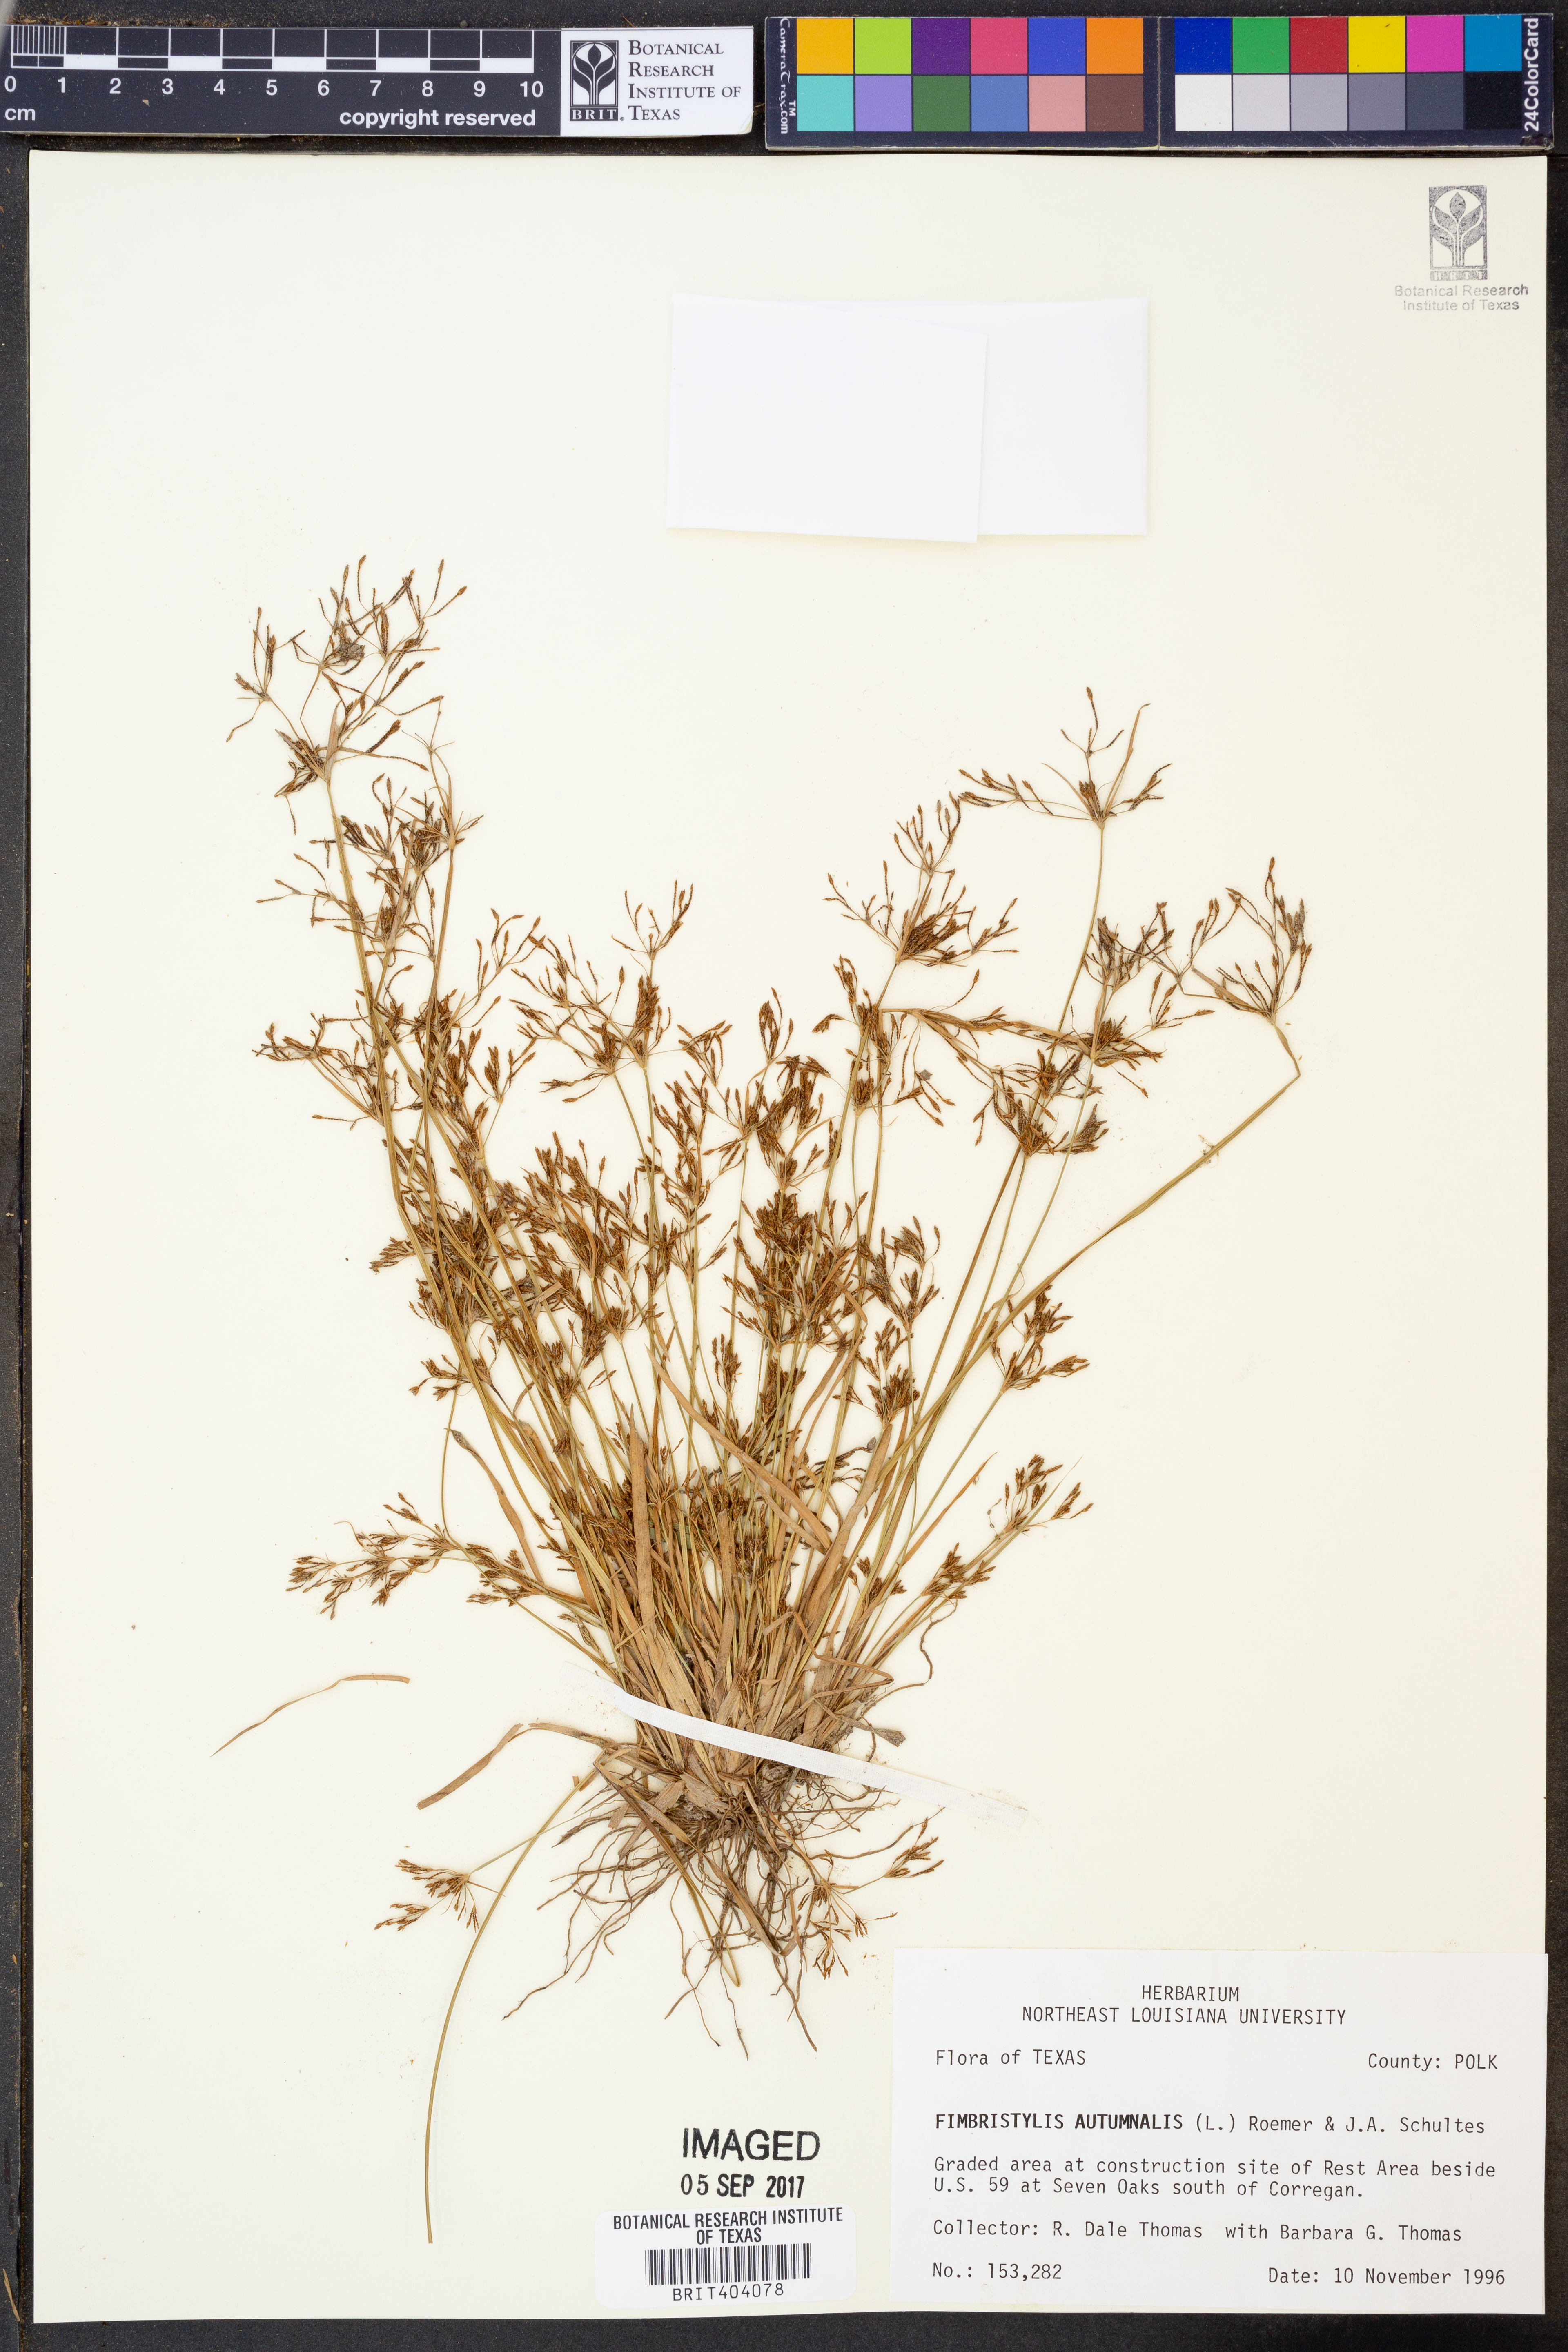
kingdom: Plantae
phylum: Tracheophyta
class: Liliopsida
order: Poales
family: Cyperaceae
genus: Fimbristylis
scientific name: Fimbristylis autumnalis
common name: Slender fimbristylis
